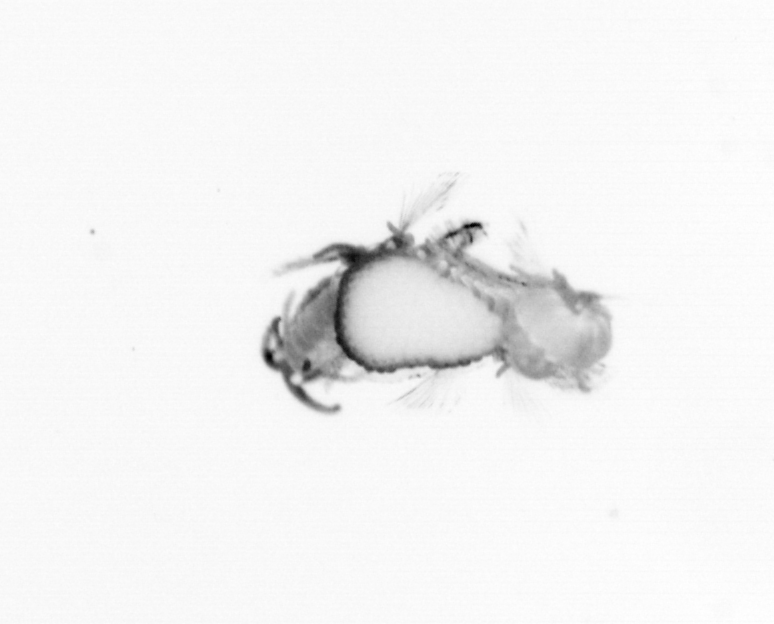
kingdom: Animalia
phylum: Annelida
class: Polychaeta
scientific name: Polychaeta
